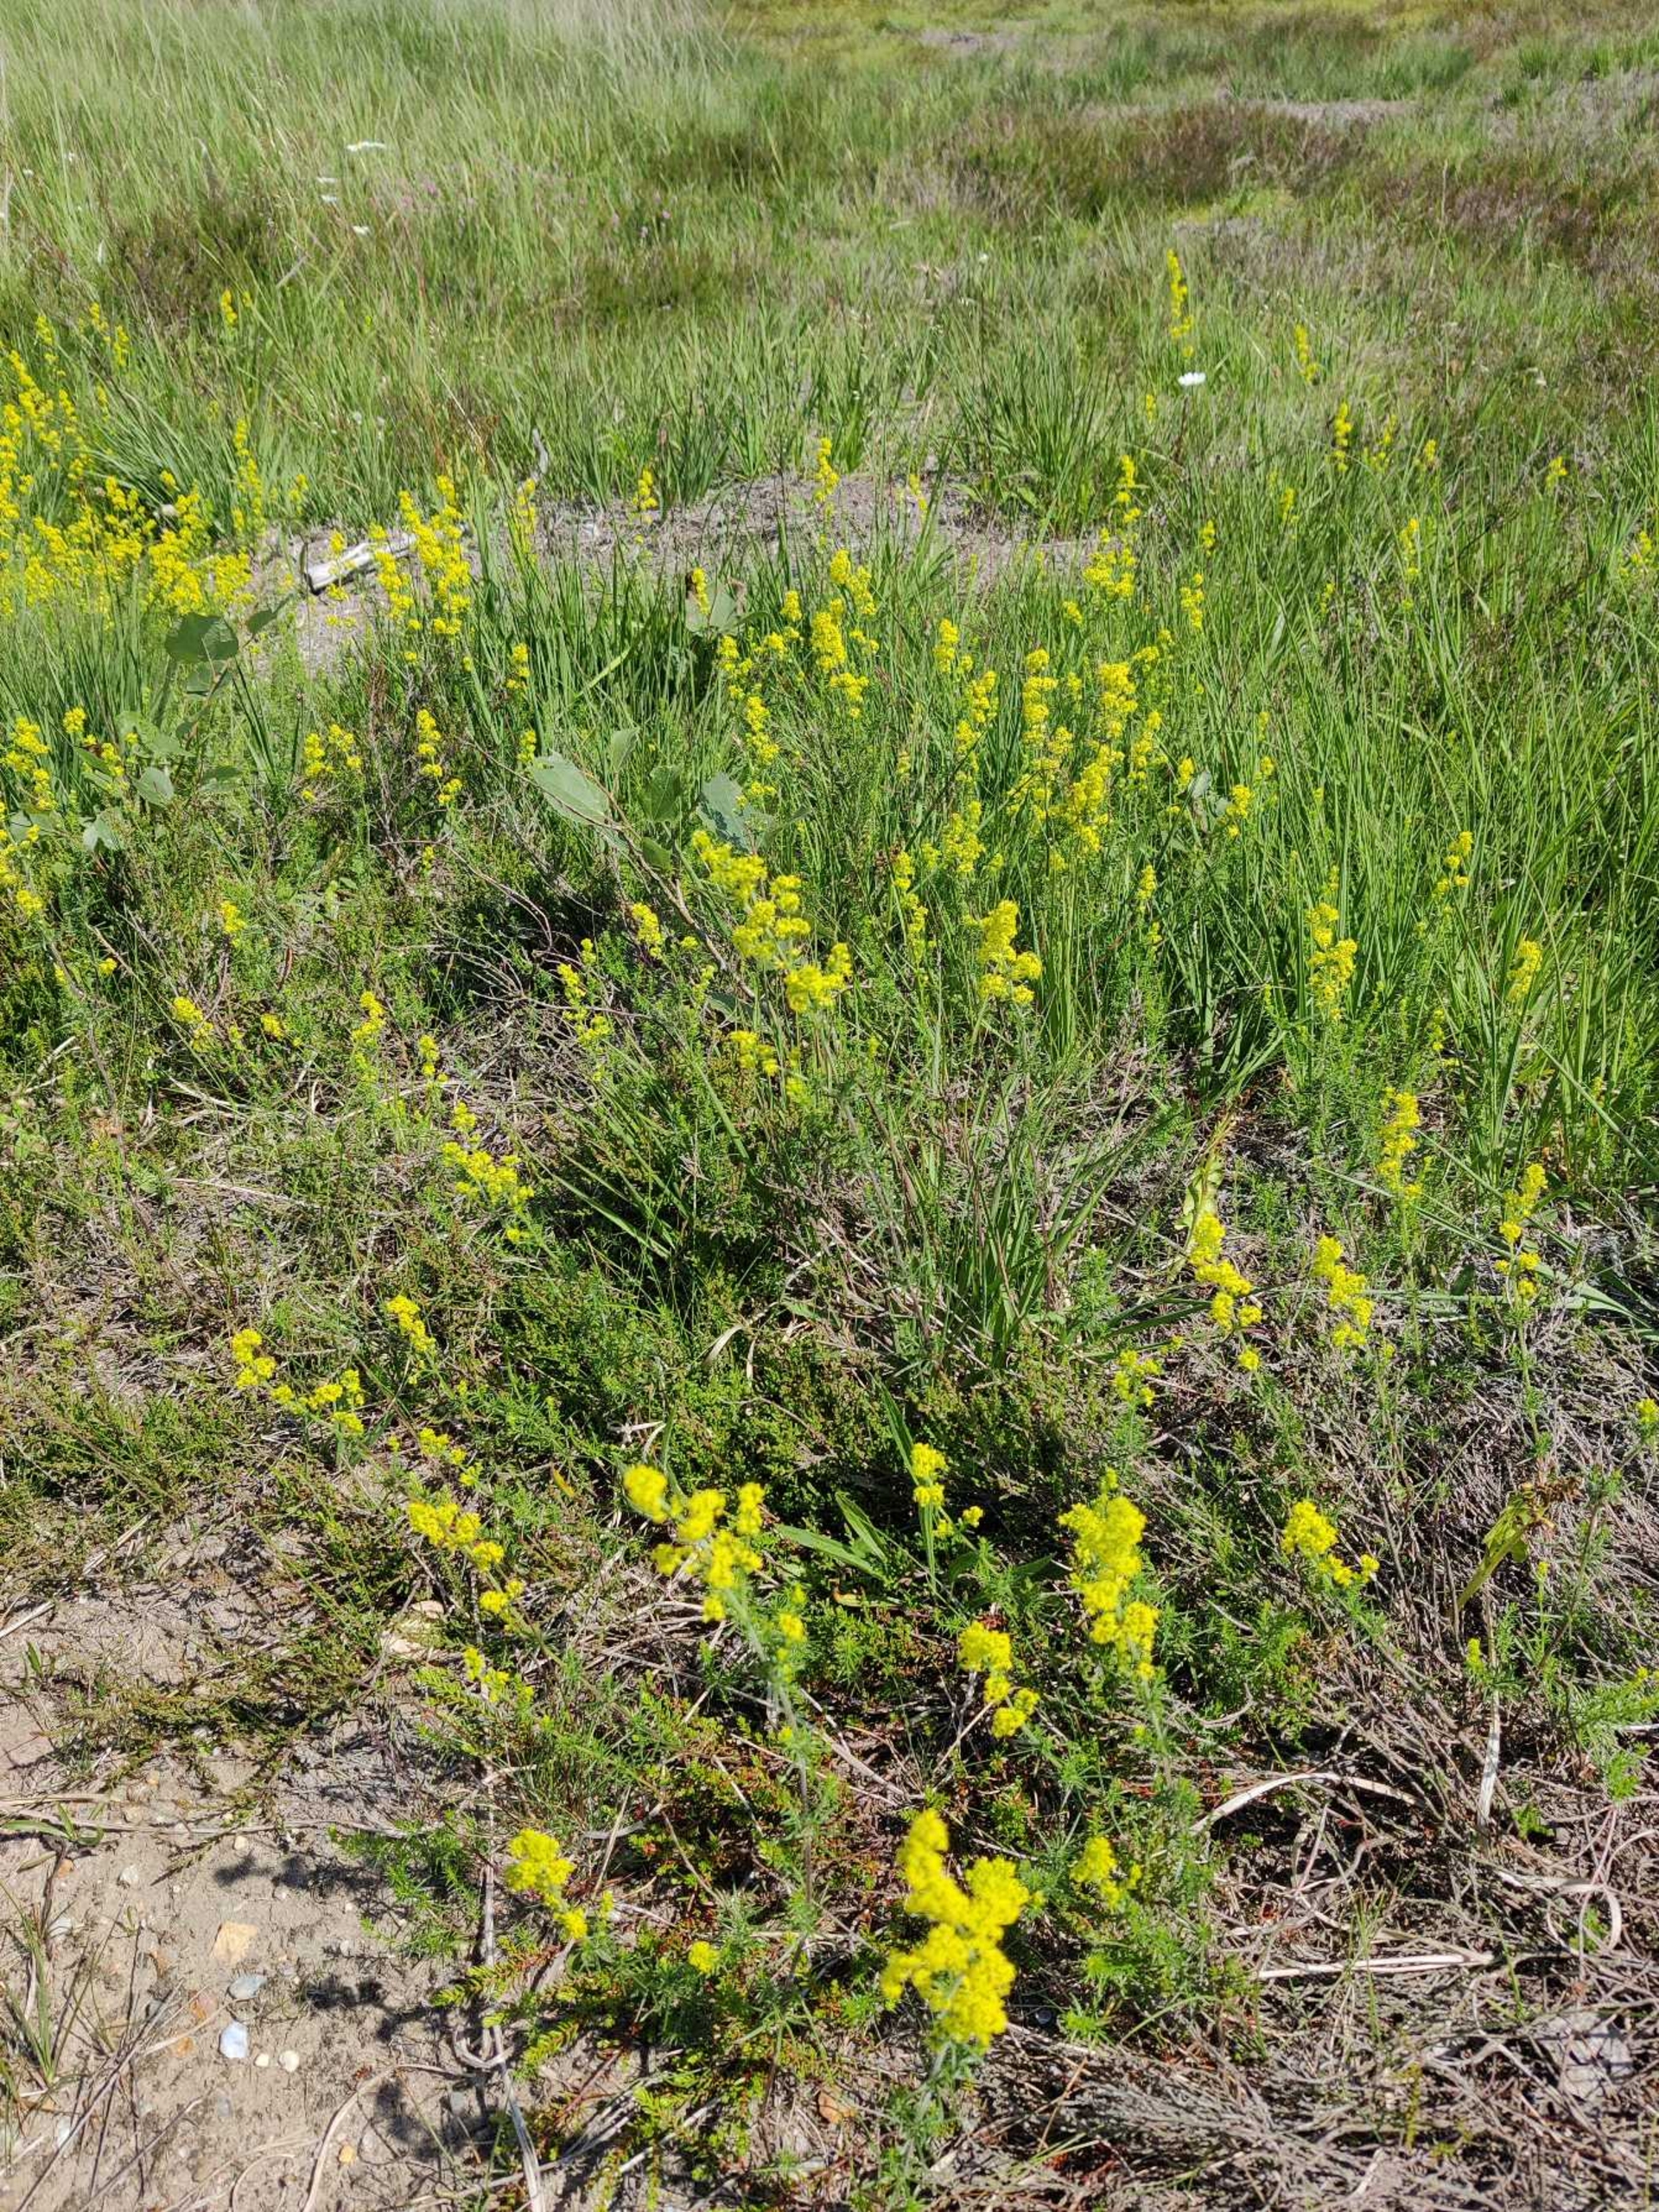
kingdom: Plantae
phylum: Tracheophyta
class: Magnoliopsida
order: Gentianales
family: Rubiaceae
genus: Galium
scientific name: Galium verum
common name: Gul snerre
